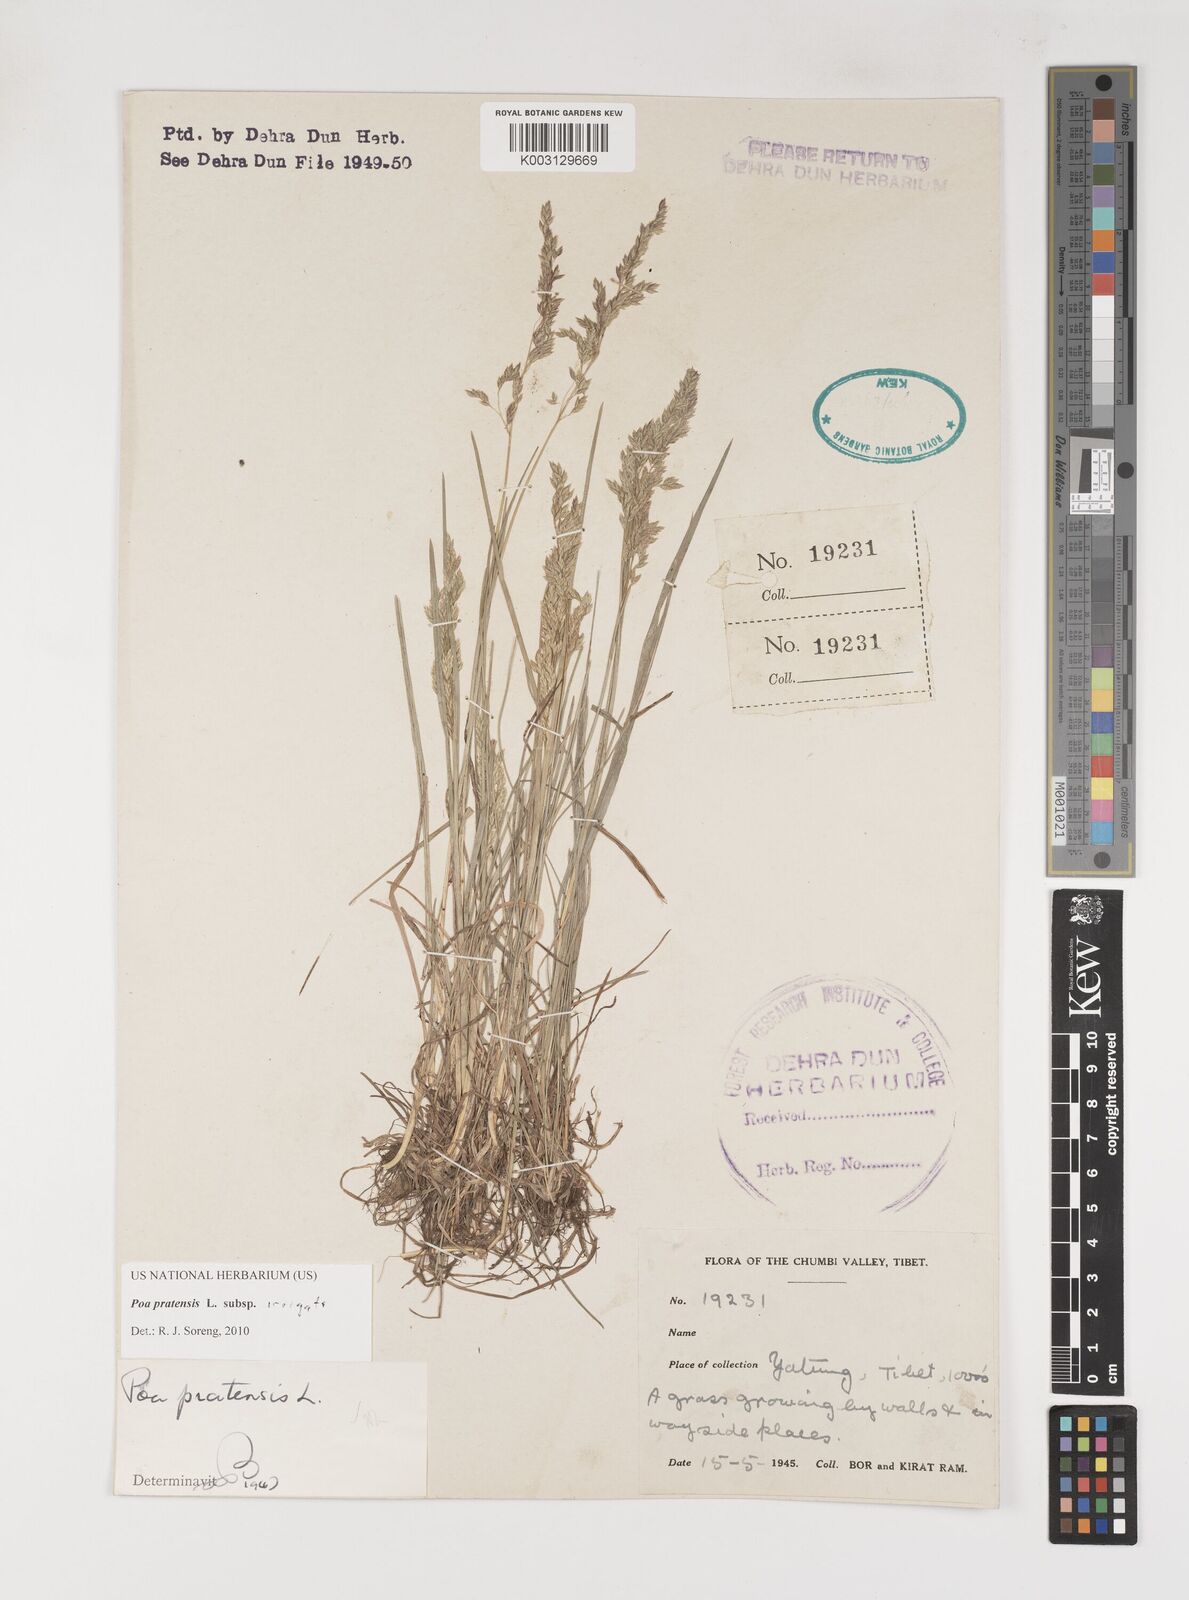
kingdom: Plantae
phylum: Tracheophyta
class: Liliopsida
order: Poales
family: Poaceae
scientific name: Poaceae
